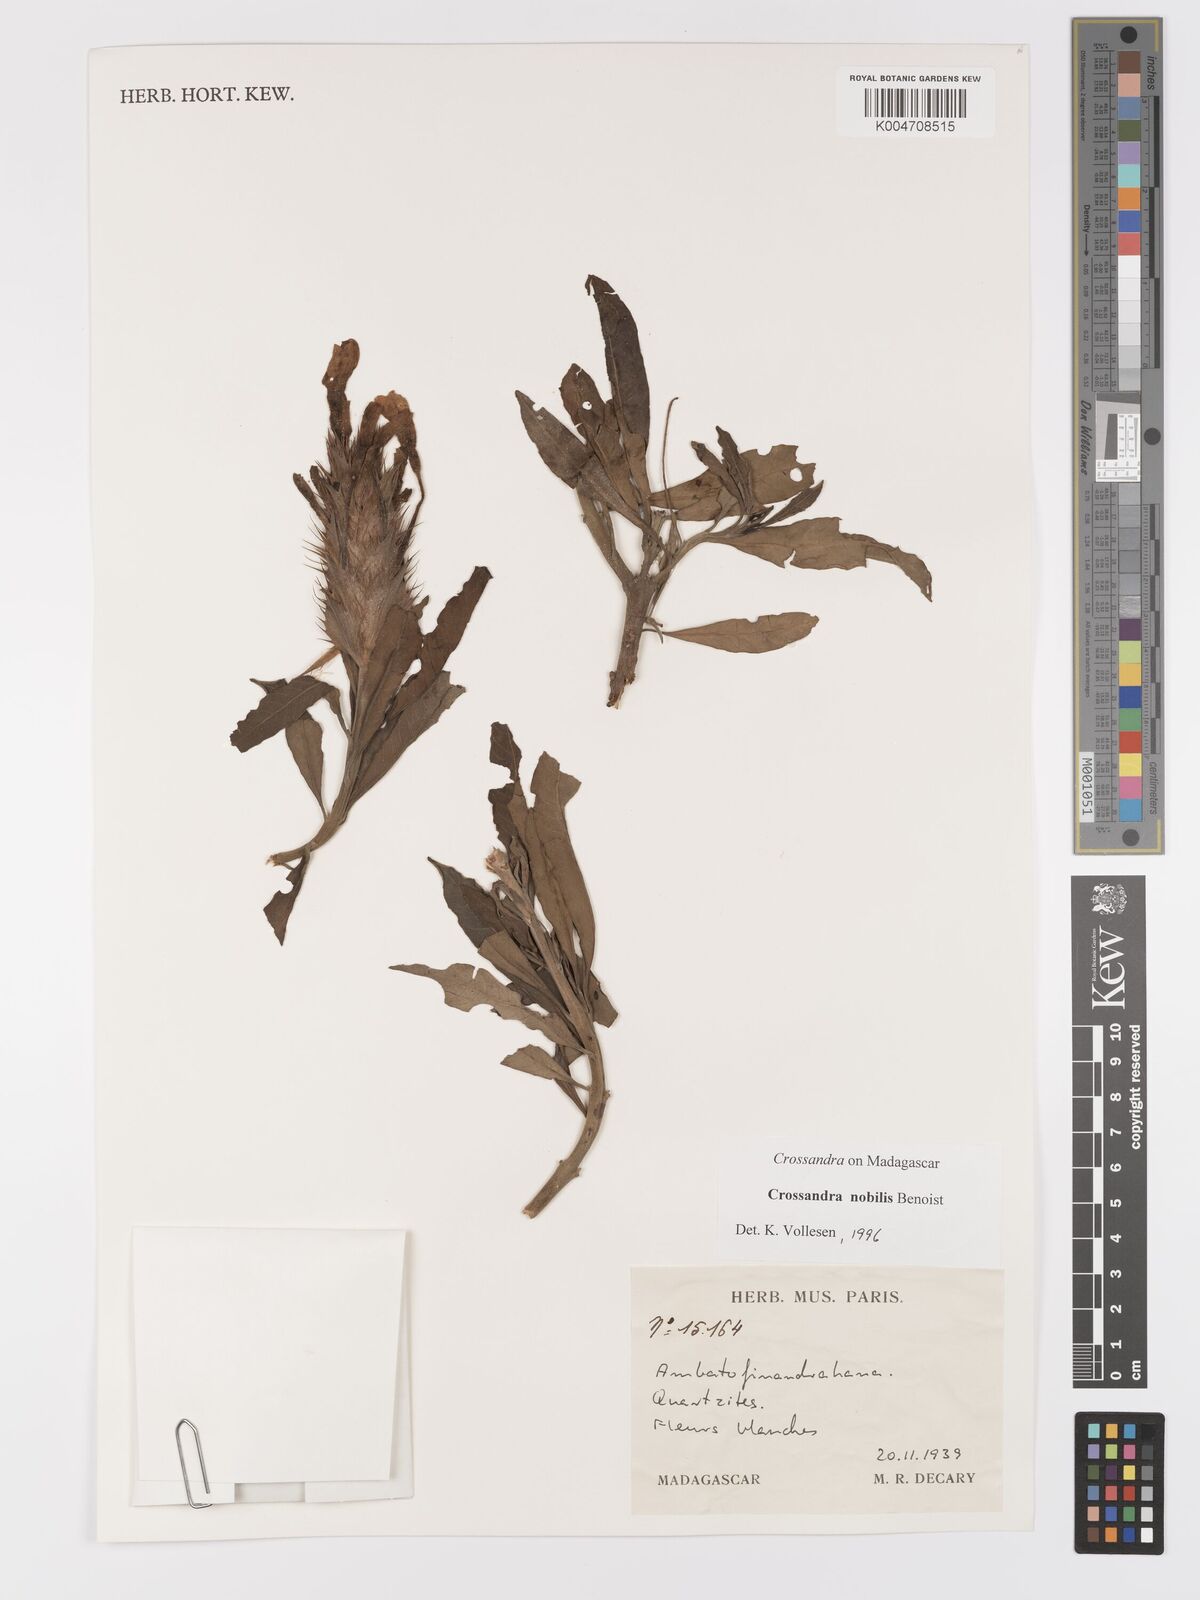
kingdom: Plantae
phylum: Tracheophyta
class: Magnoliopsida
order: Lamiales
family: Acanthaceae
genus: Crossandra
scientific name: Crossandra nobilis
